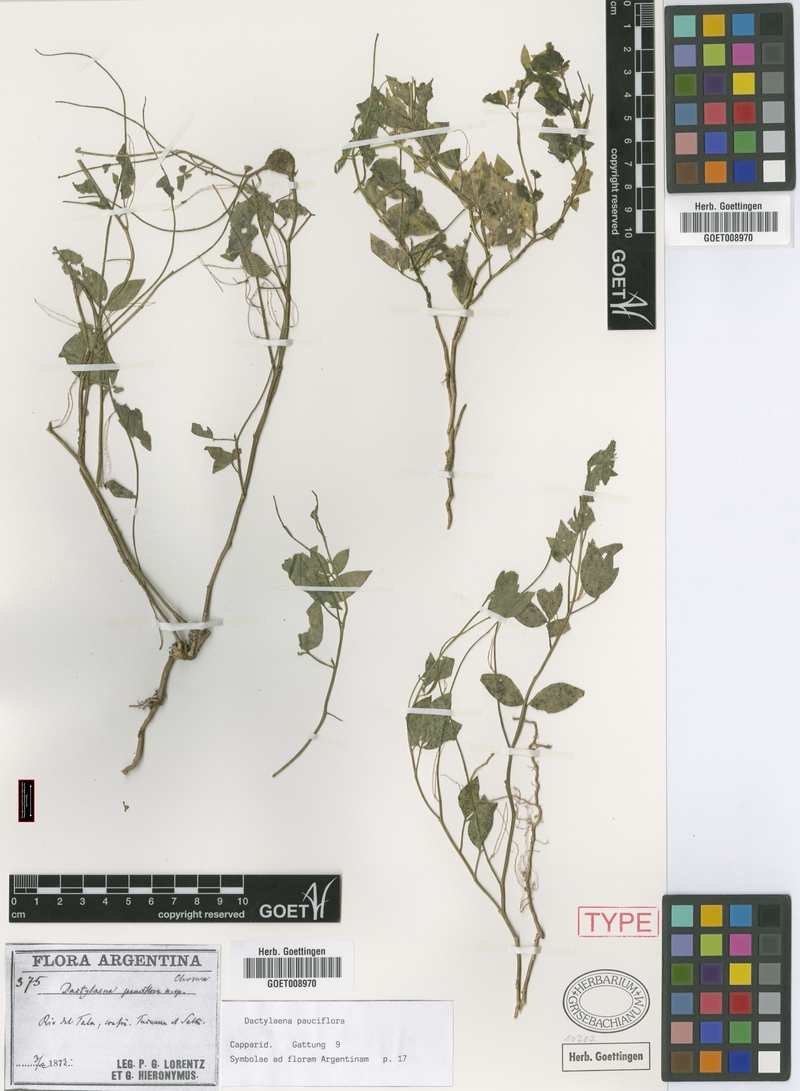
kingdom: Plantae
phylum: Tracheophyta
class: Magnoliopsida
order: Brassicales
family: Cleomaceae
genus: Dactylaena
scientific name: Dactylaena pauciflora
